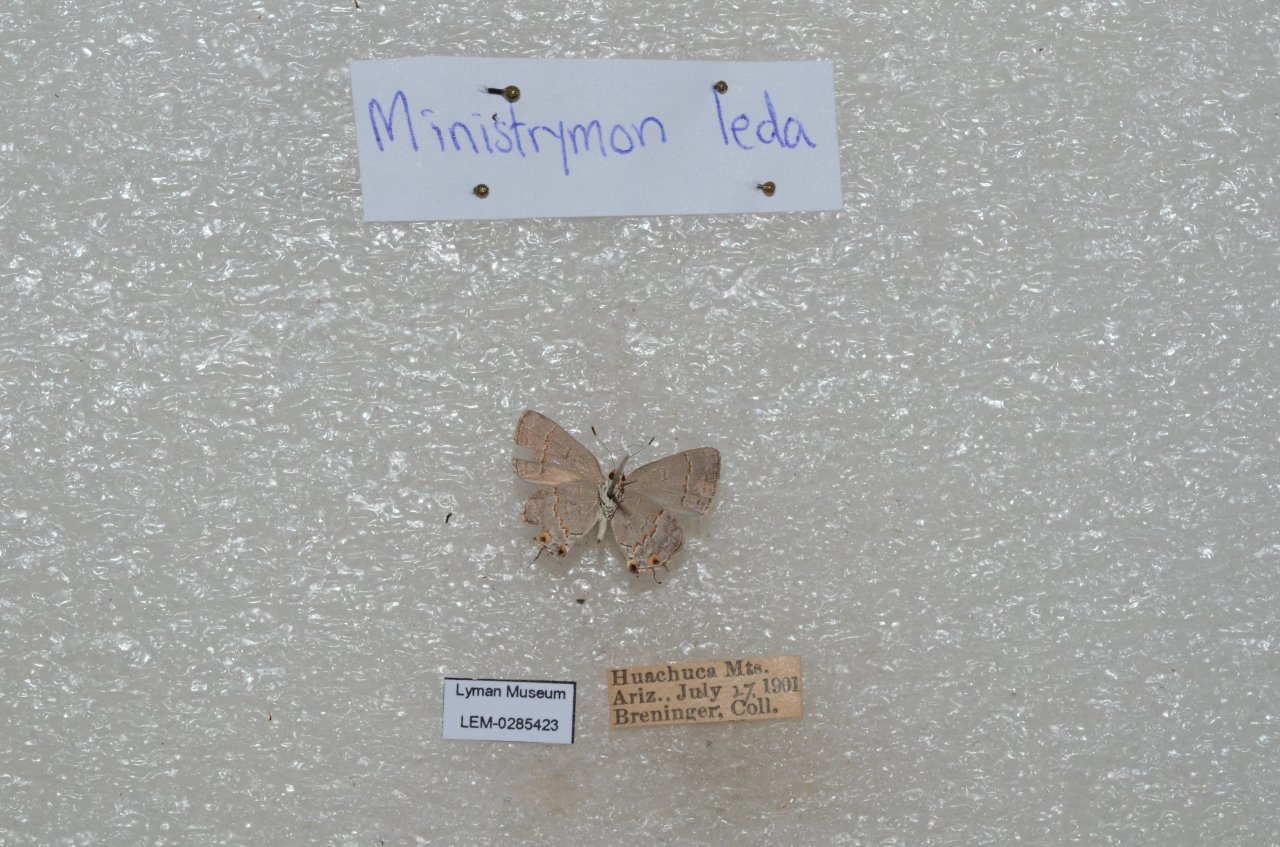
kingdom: Animalia
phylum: Arthropoda
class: Insecta
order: Lepidoptera
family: Lycaenidae
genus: Ministrymon
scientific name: Ministrymon leda
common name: Leda Ministreak
